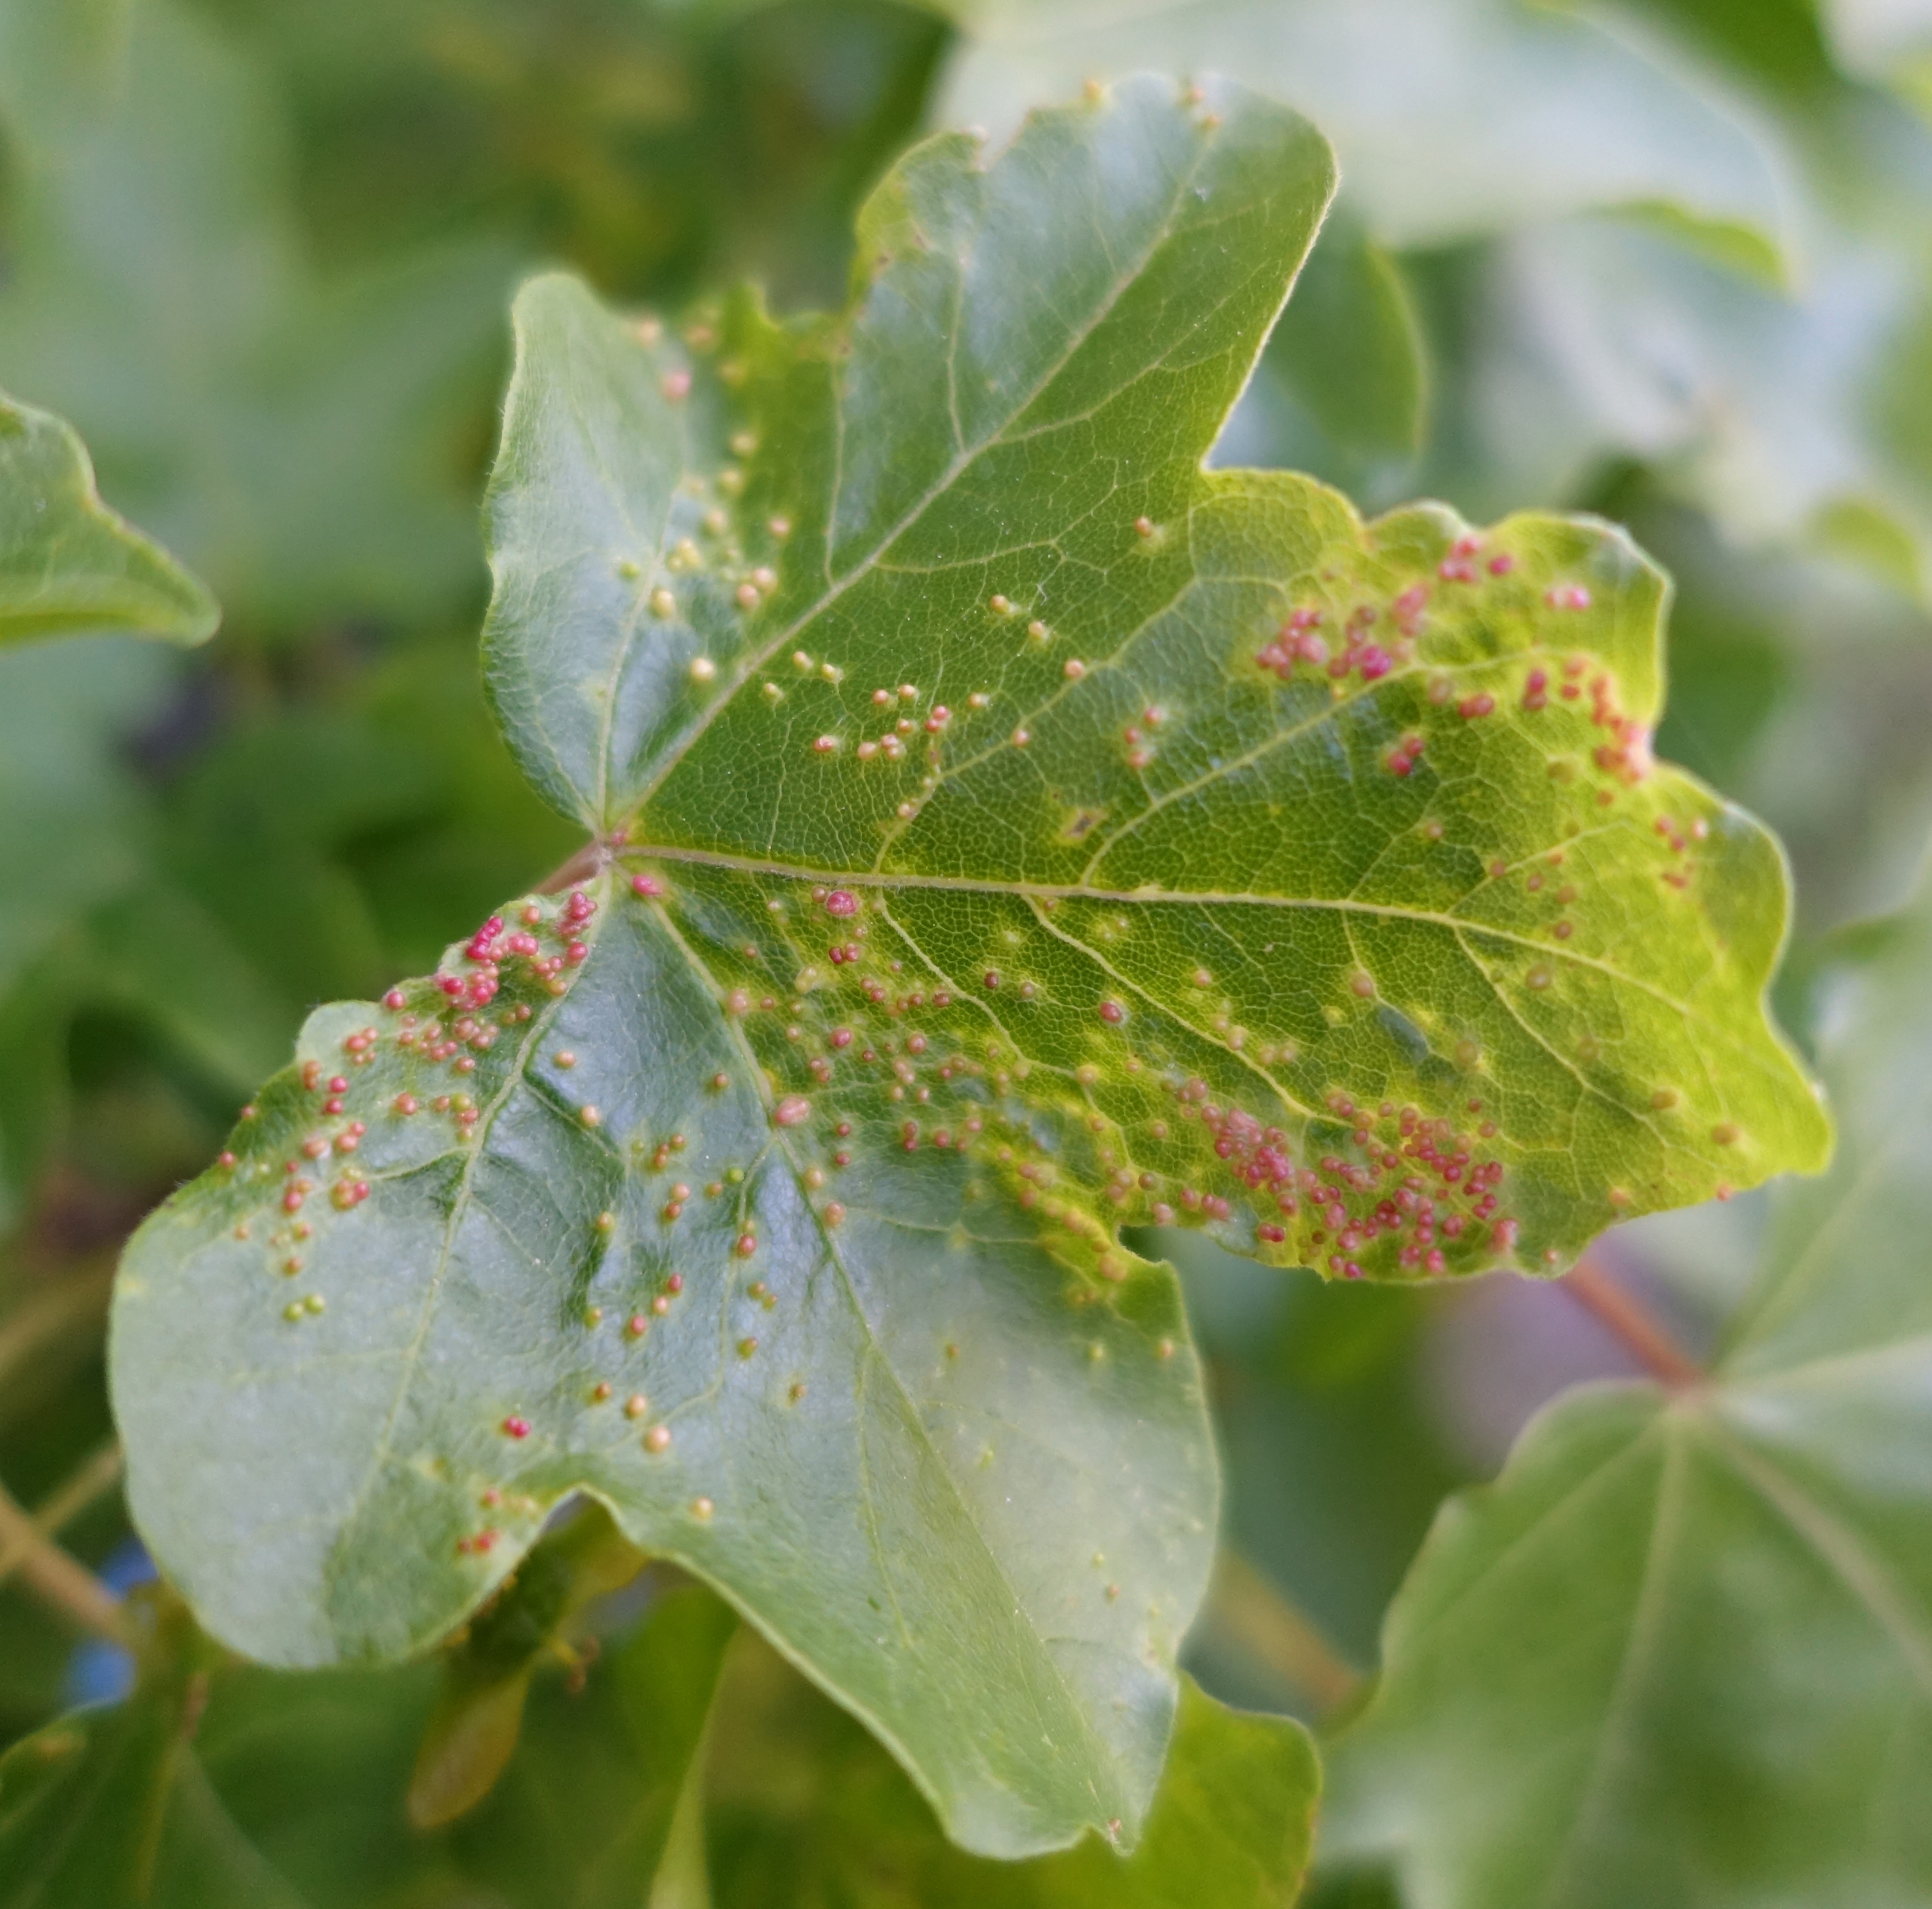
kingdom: Animalia
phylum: Arthropoda
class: Arachnida
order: Trombidiformes
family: Eriophyidae
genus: Aceria
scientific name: Aceria myriadeum
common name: Navrvortegalmide
